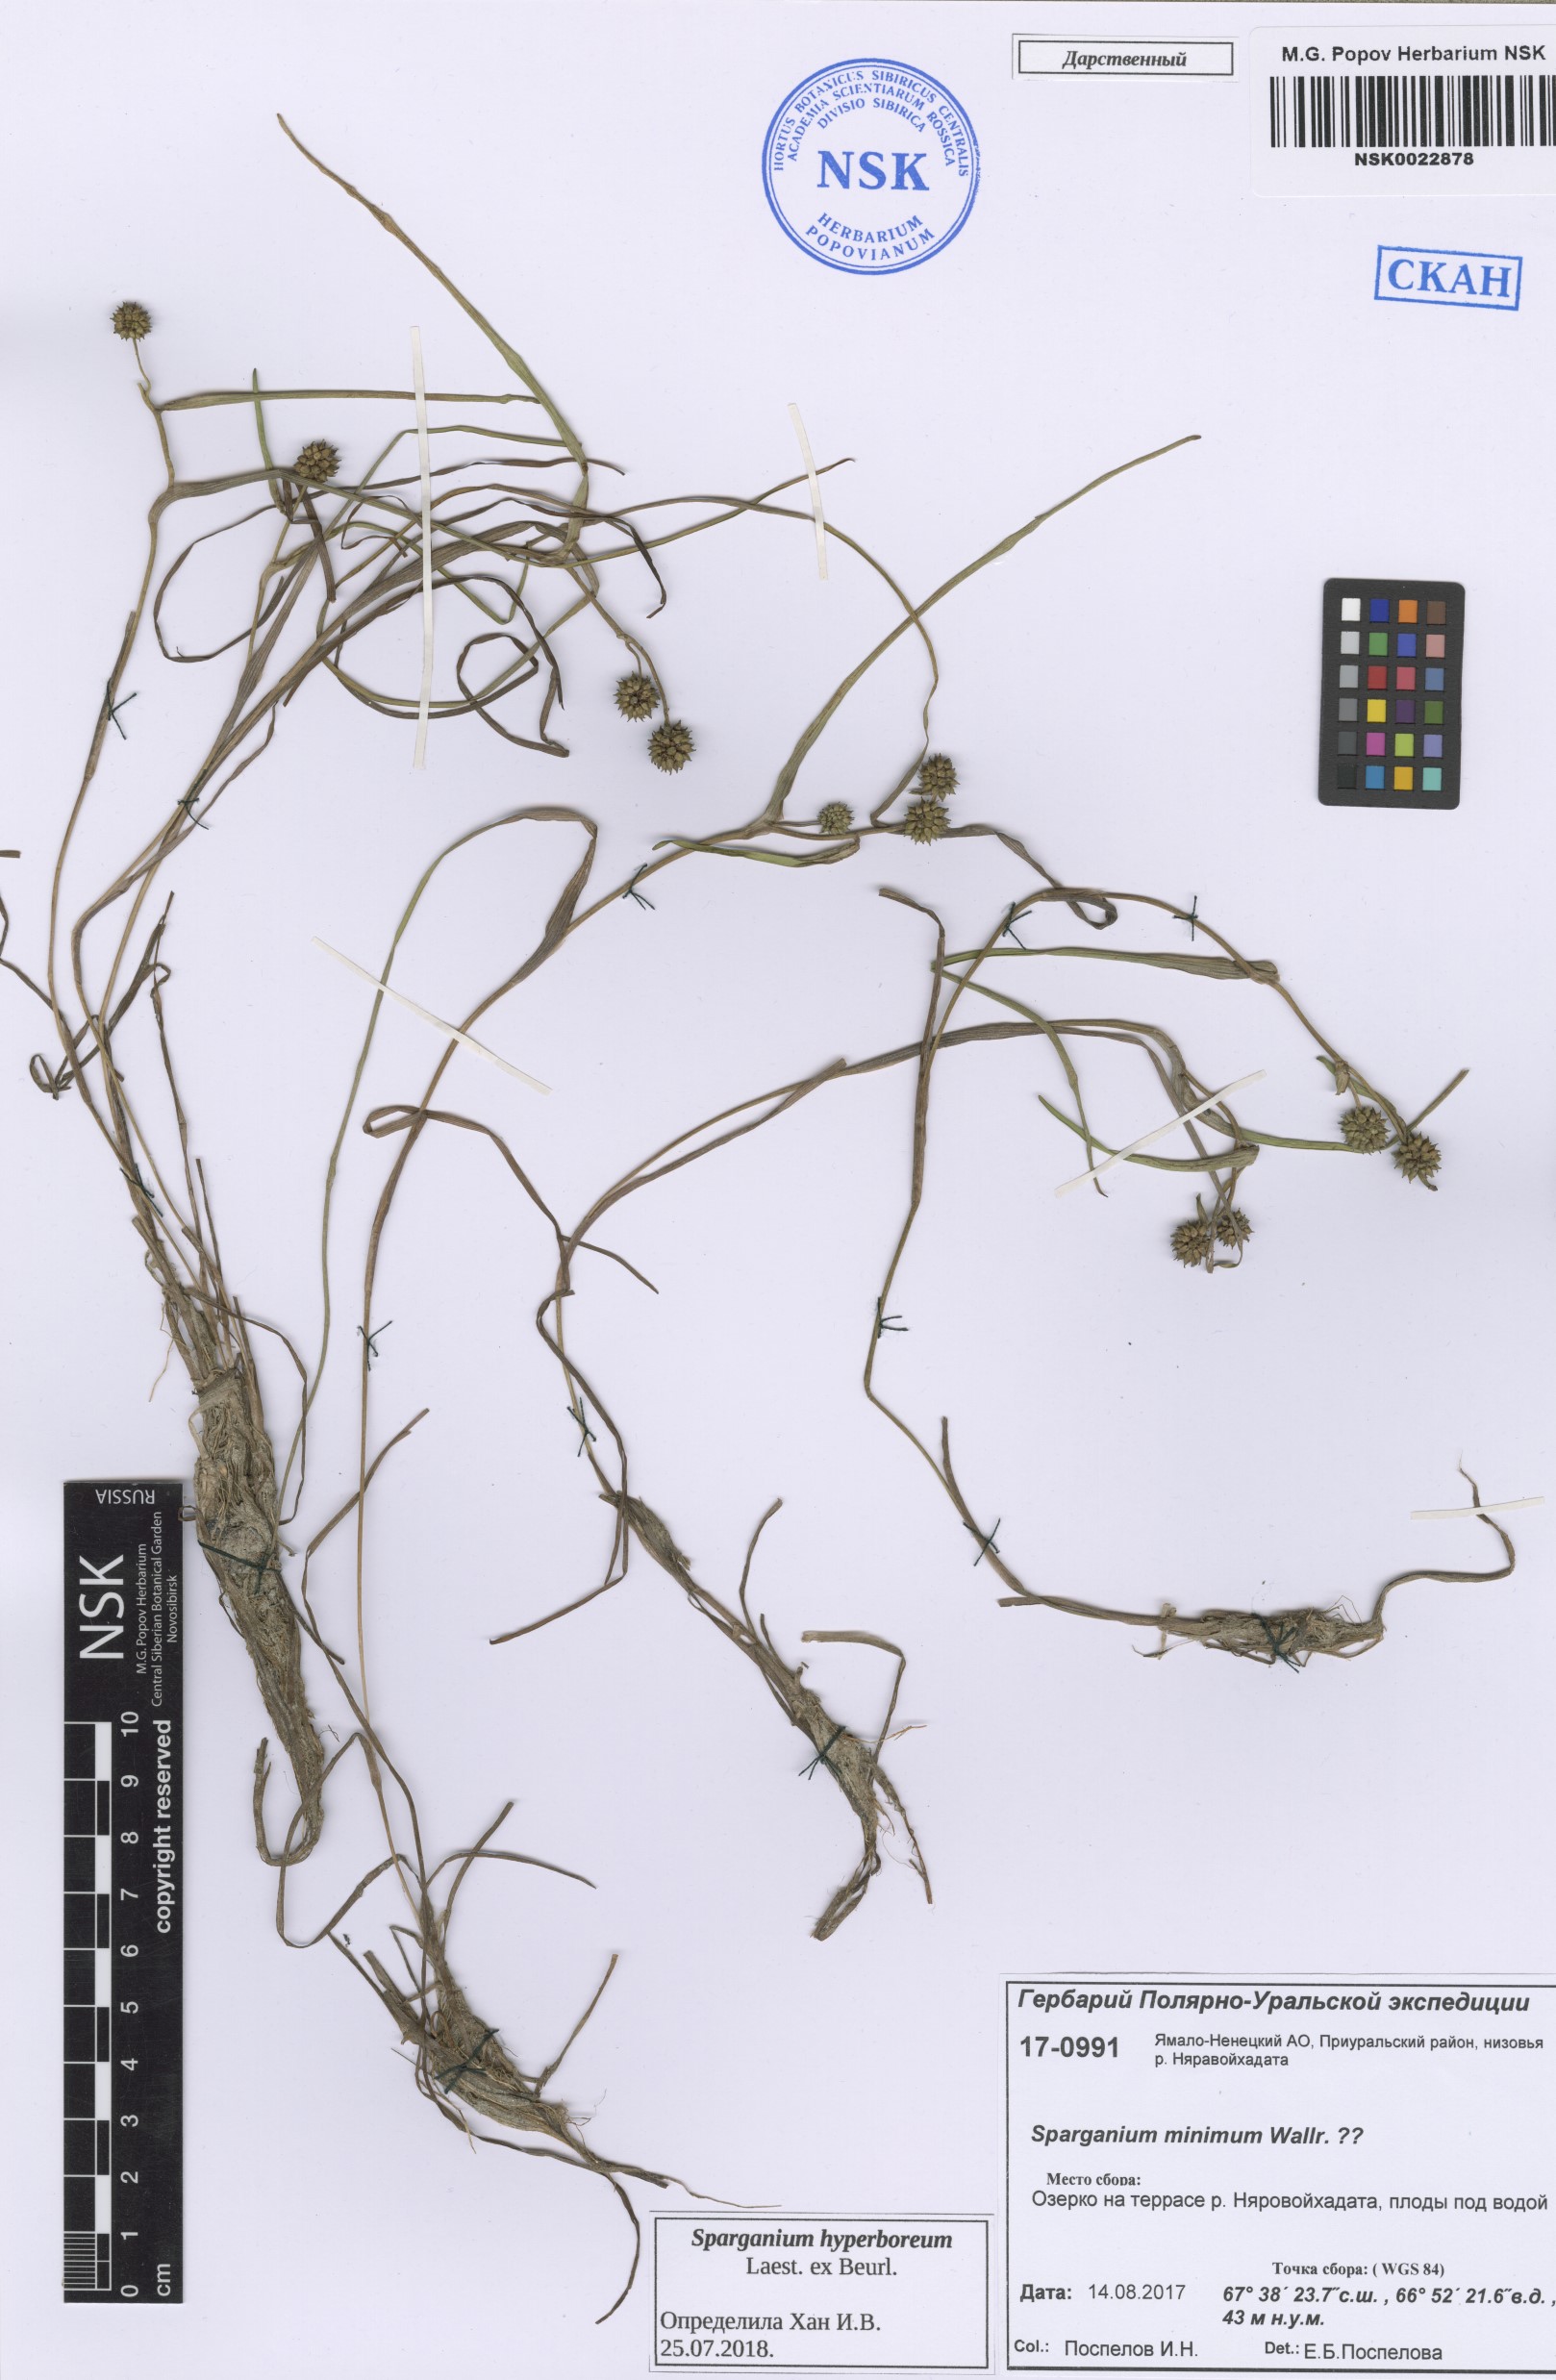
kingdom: Plantae
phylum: Tracheophyta
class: Liliopsida
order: Poales
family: Typhaceae
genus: Sparganium
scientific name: Sparganium hyperboreum
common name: Arctic burreed
